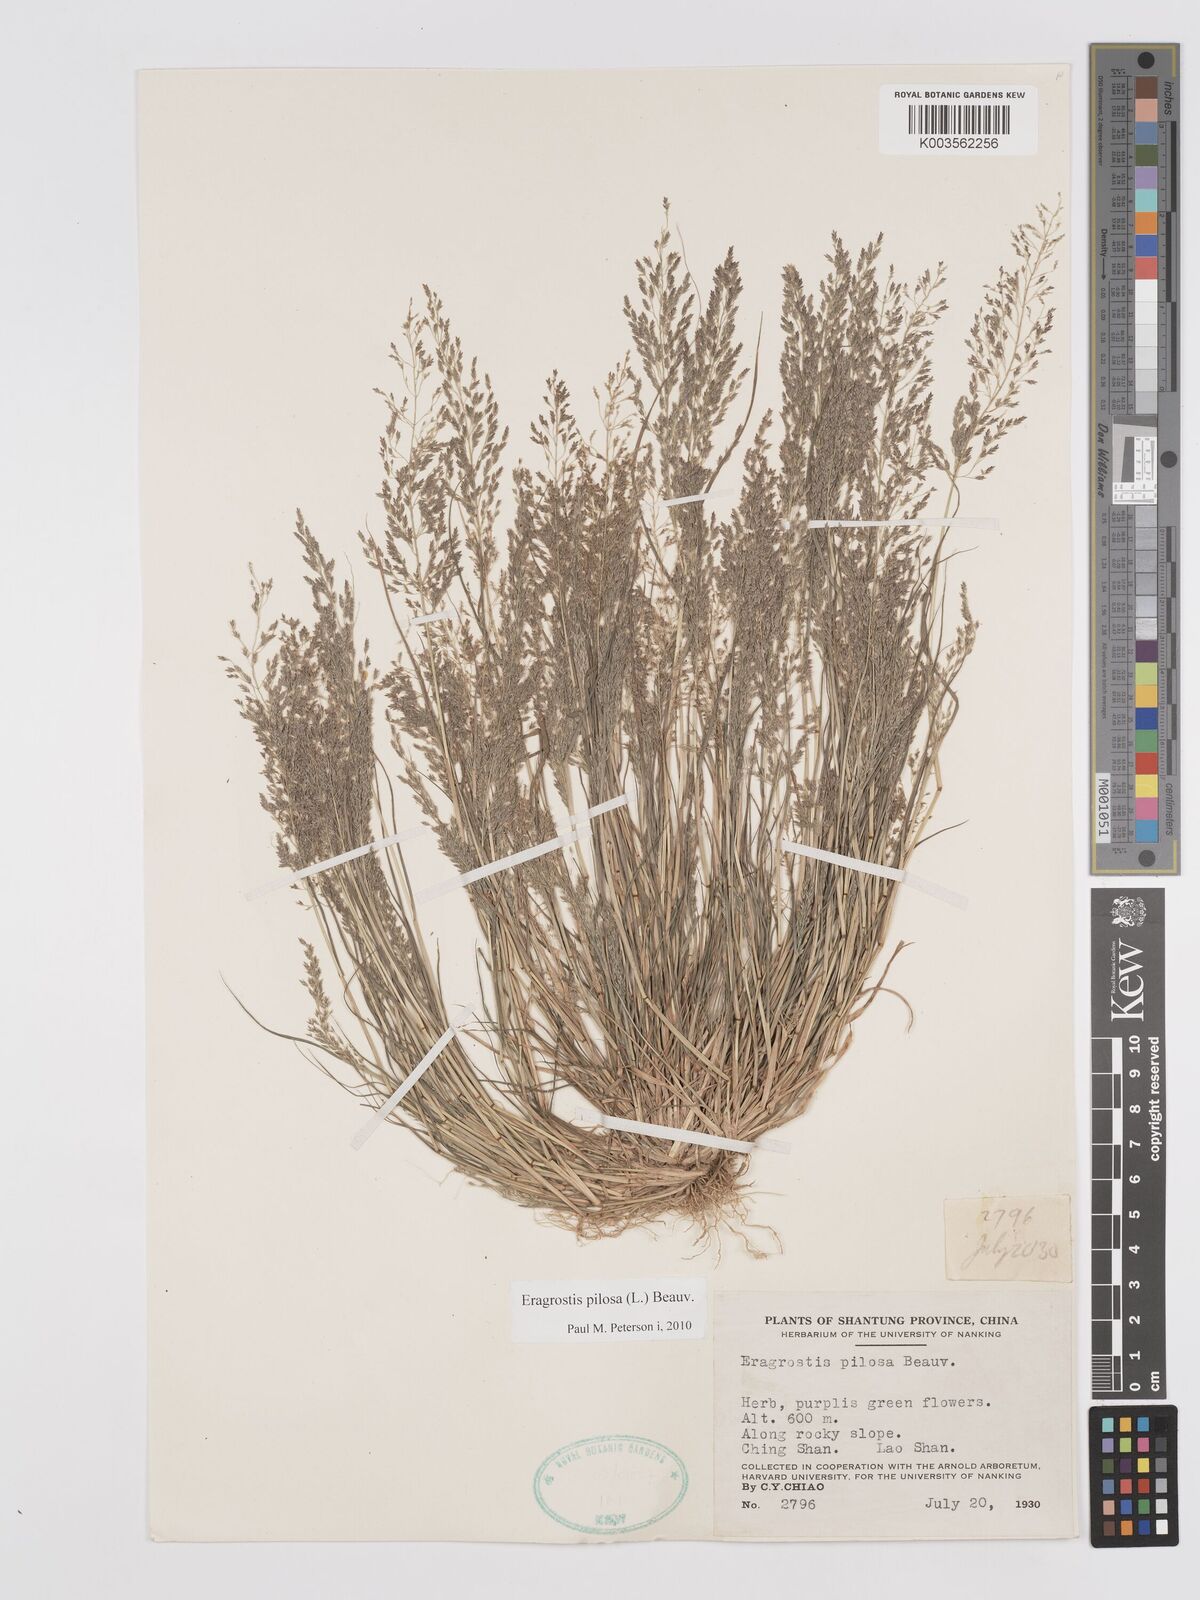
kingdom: Plantae
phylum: Tracheophyta
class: Liliopsida
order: Poales
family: Poaceae
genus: Eragrostis
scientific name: Eragrostis pilosa
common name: Indian lovegrass
